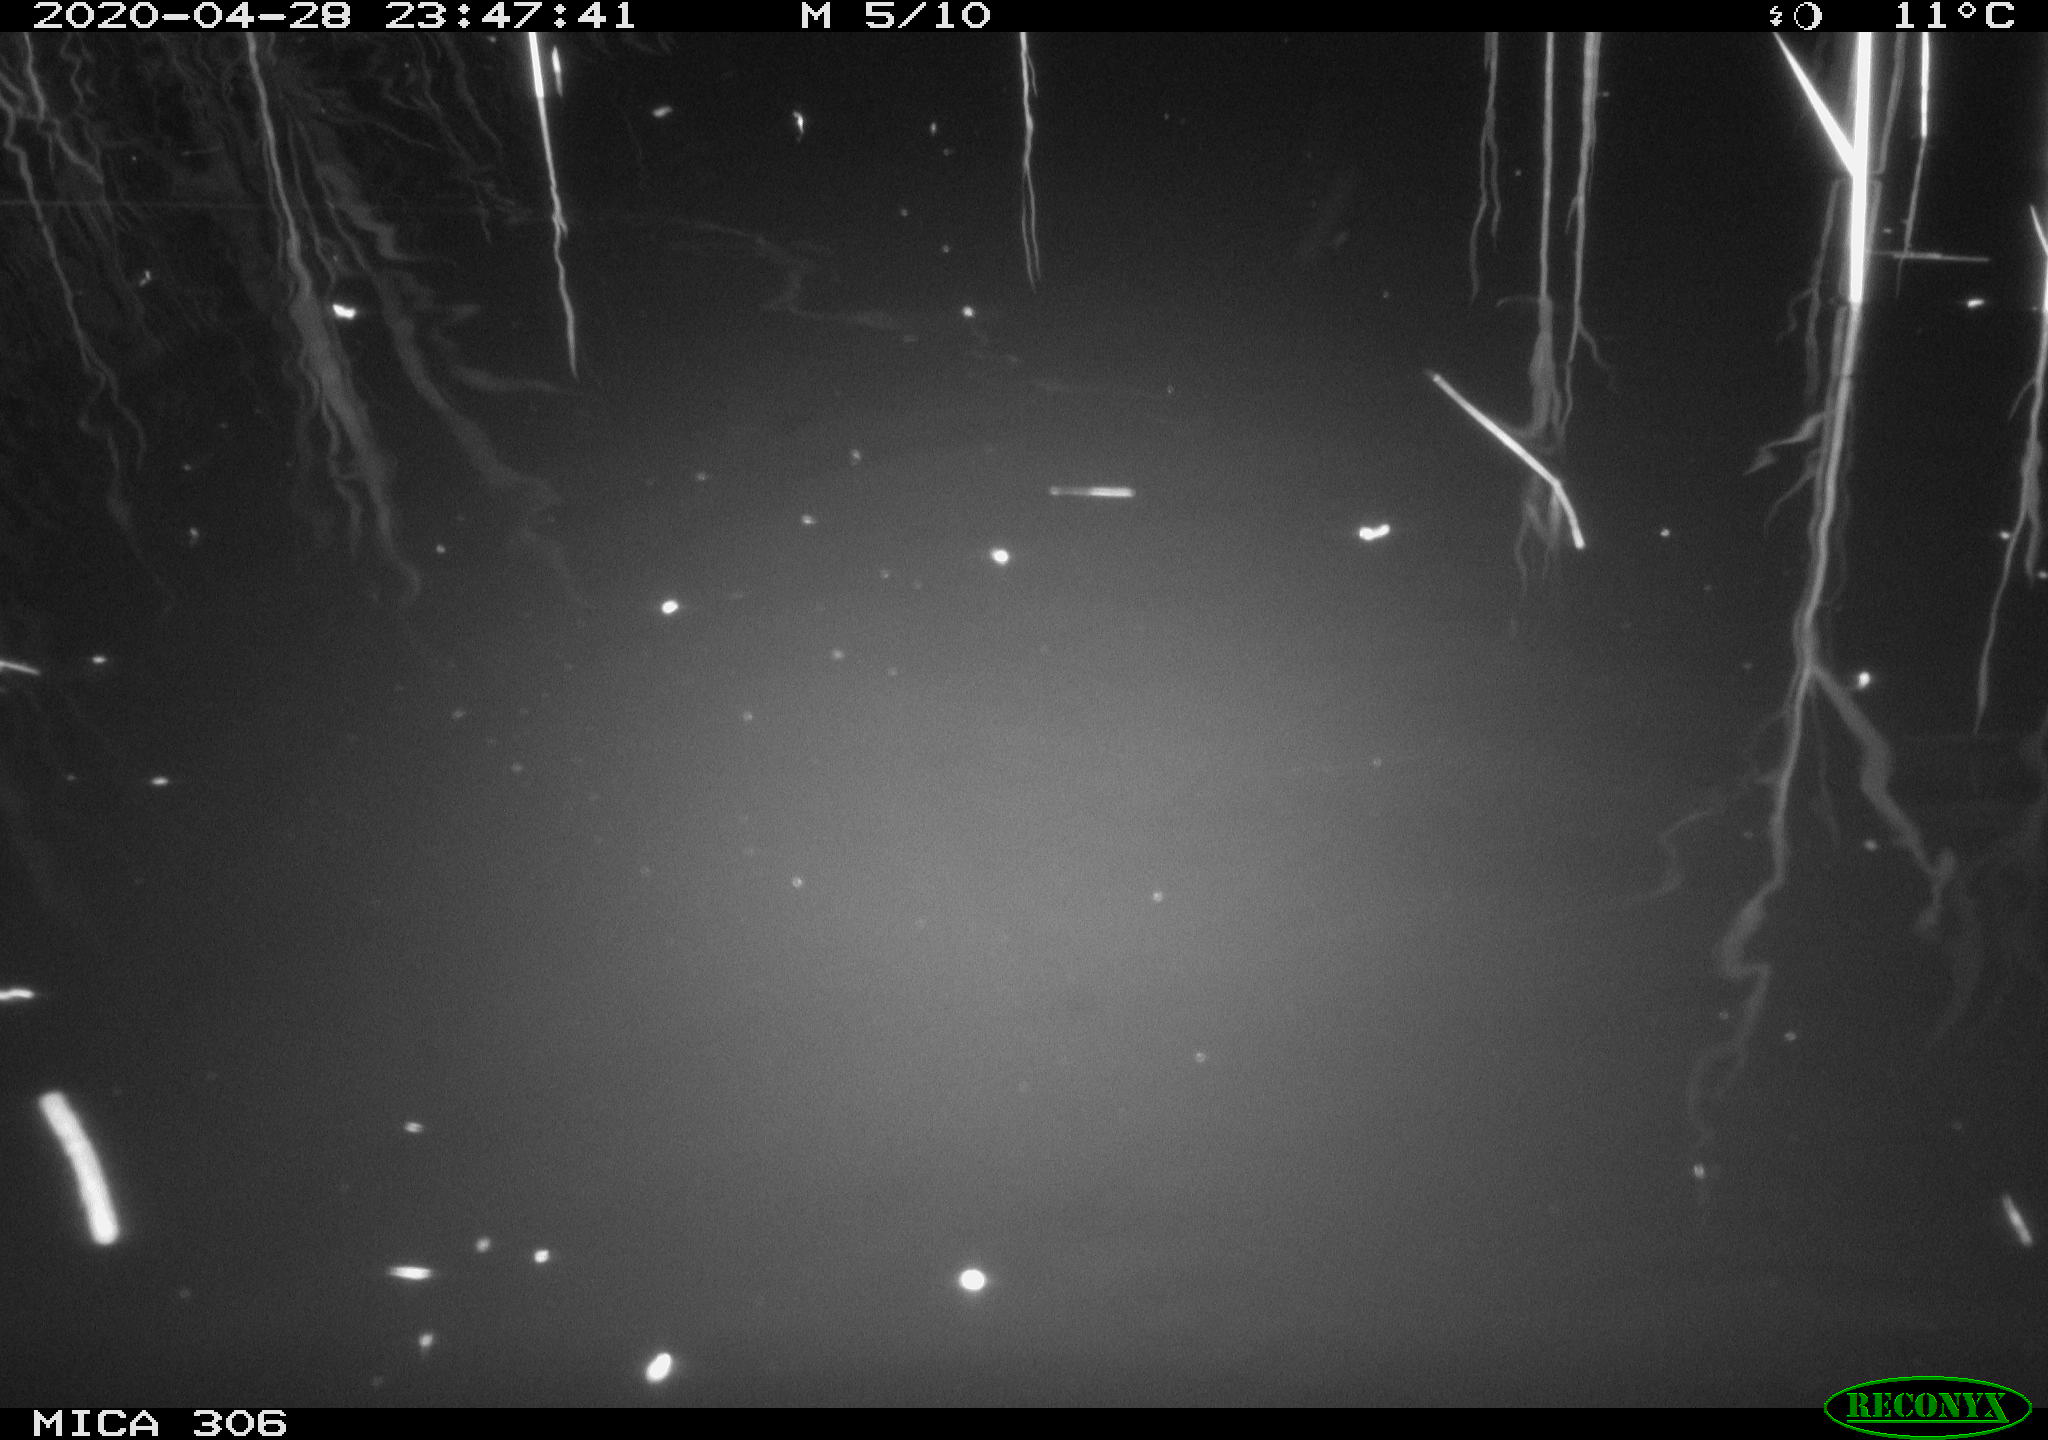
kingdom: Animalia
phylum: Chordata
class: Mammalia
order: Rodentia
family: Cricetidae
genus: Ondatra
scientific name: Ondatra zibethicus
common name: Muskrat
